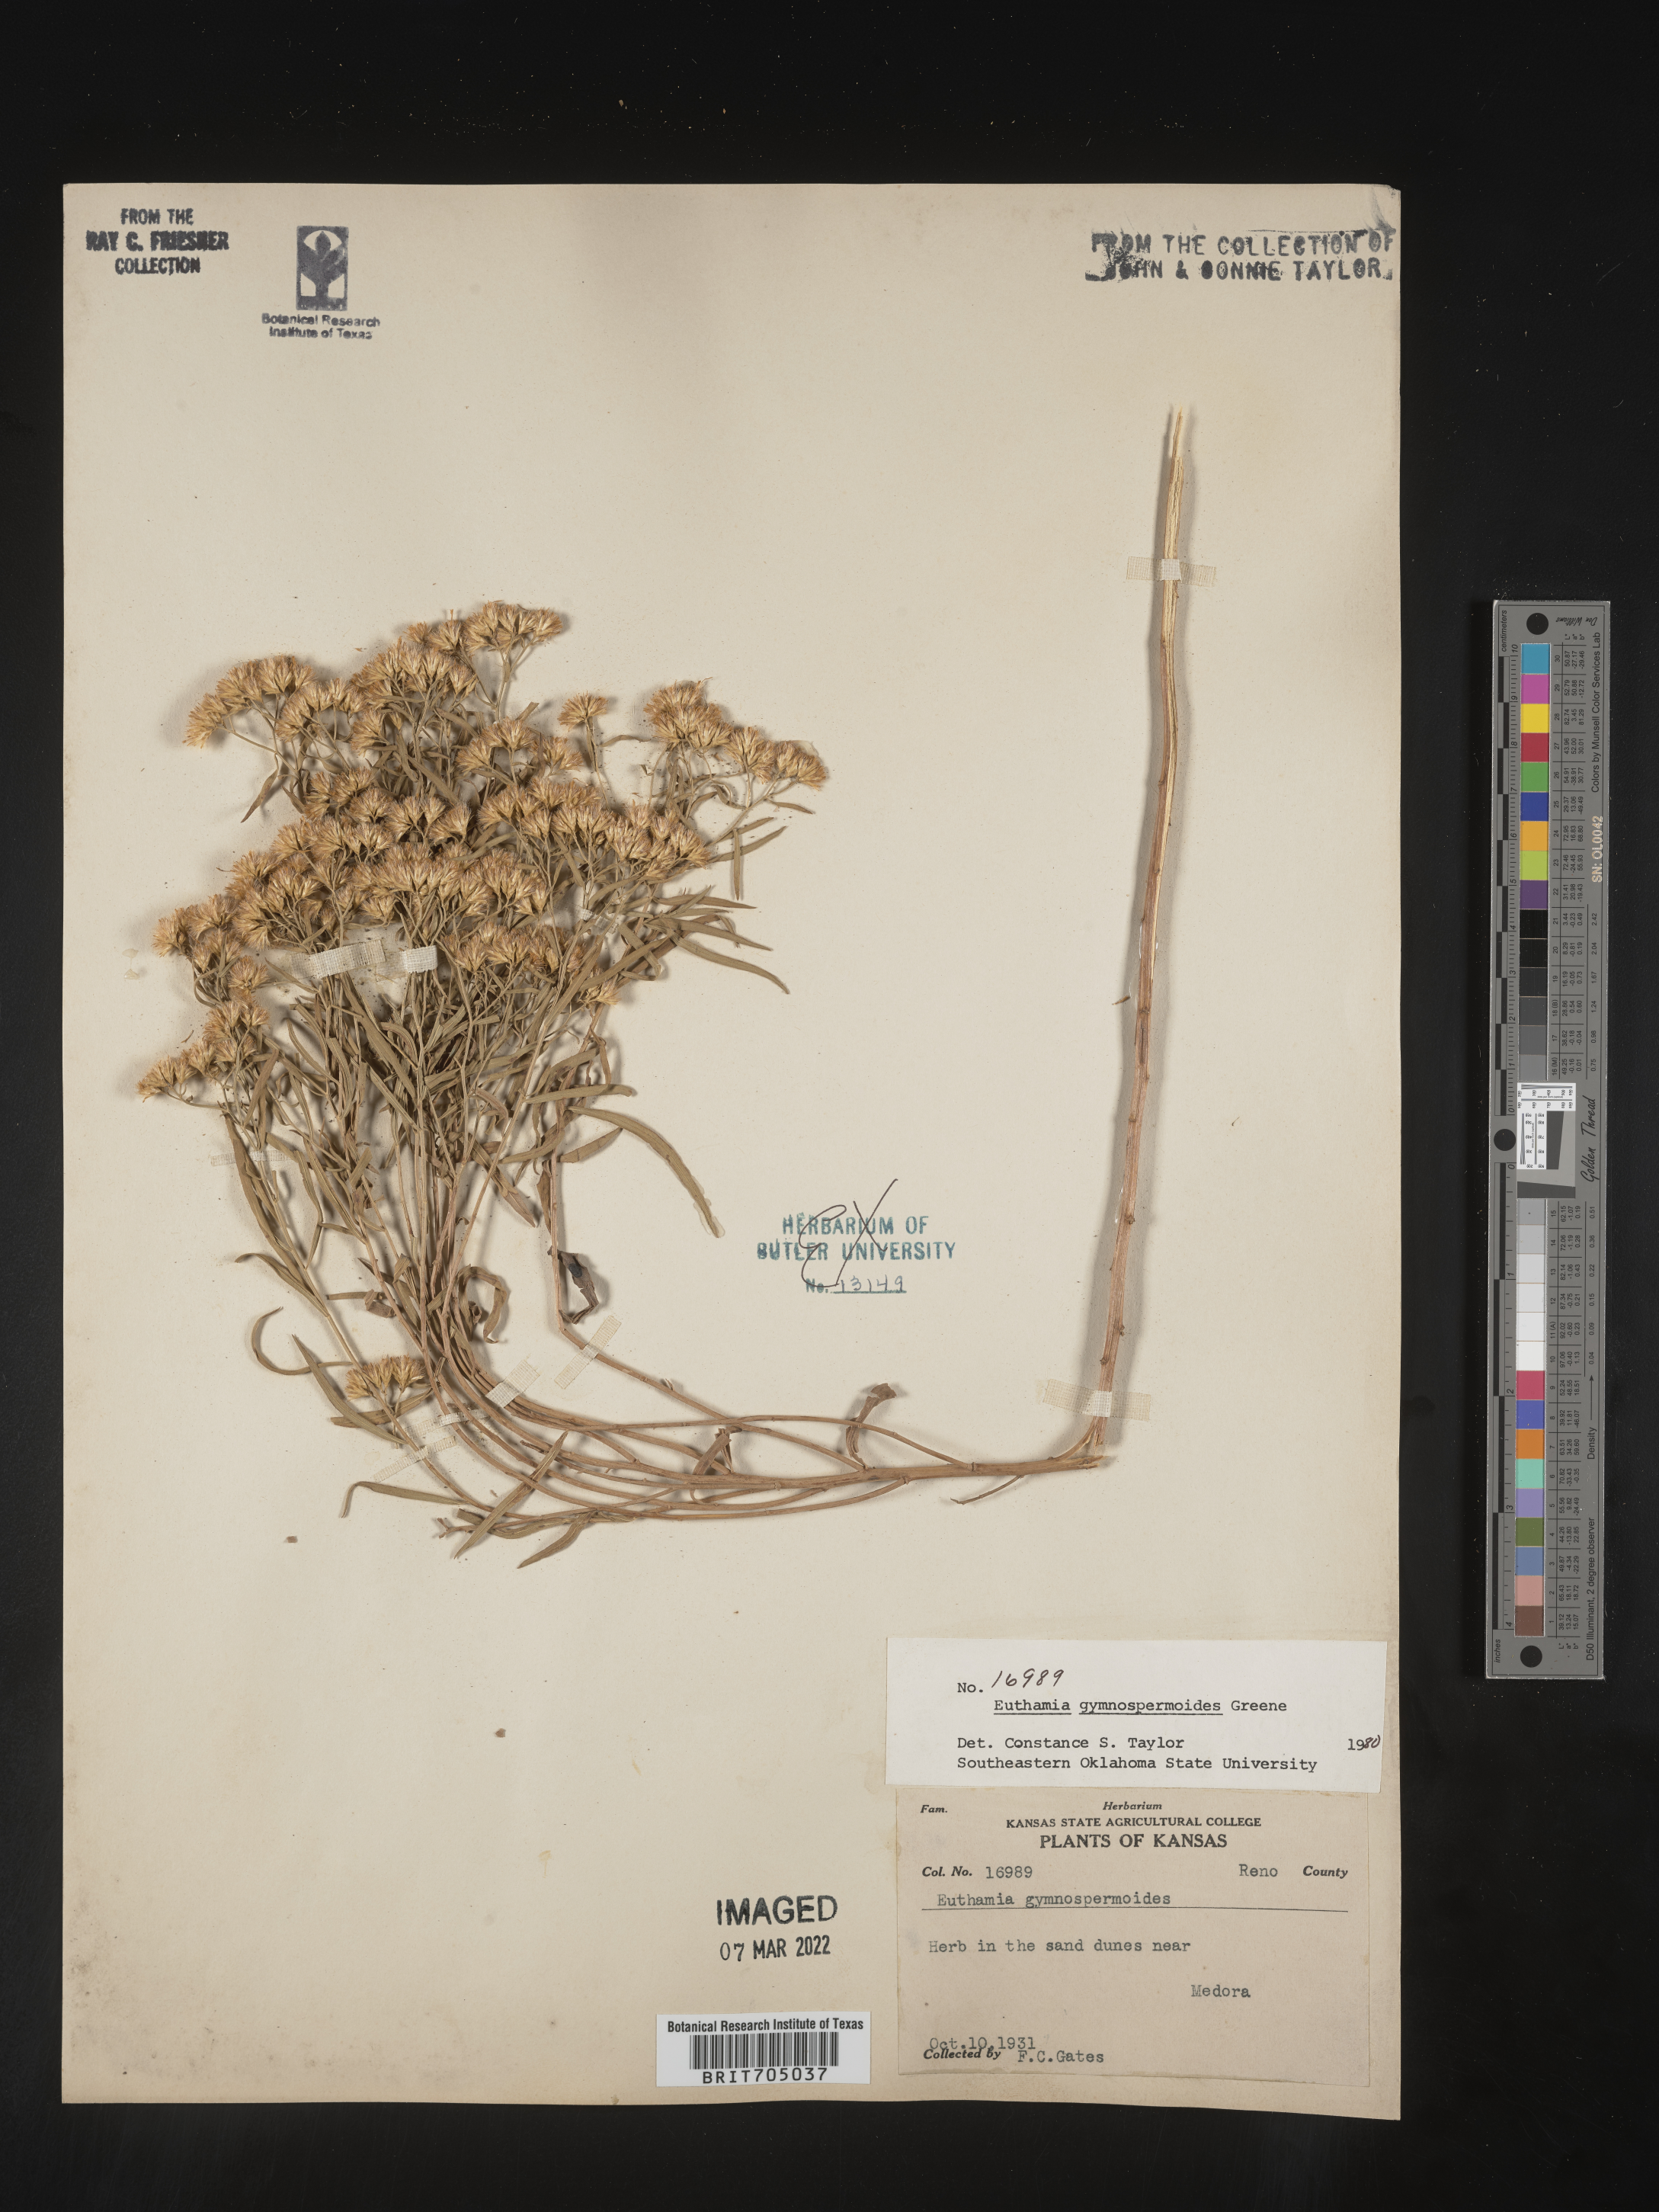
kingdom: Plantae
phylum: Tracheophyta
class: Magnoliopsida
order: Asterales
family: Asteraceae
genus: Euthamia
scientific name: Euthamia gymnospermoides
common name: Great plains goldentop
